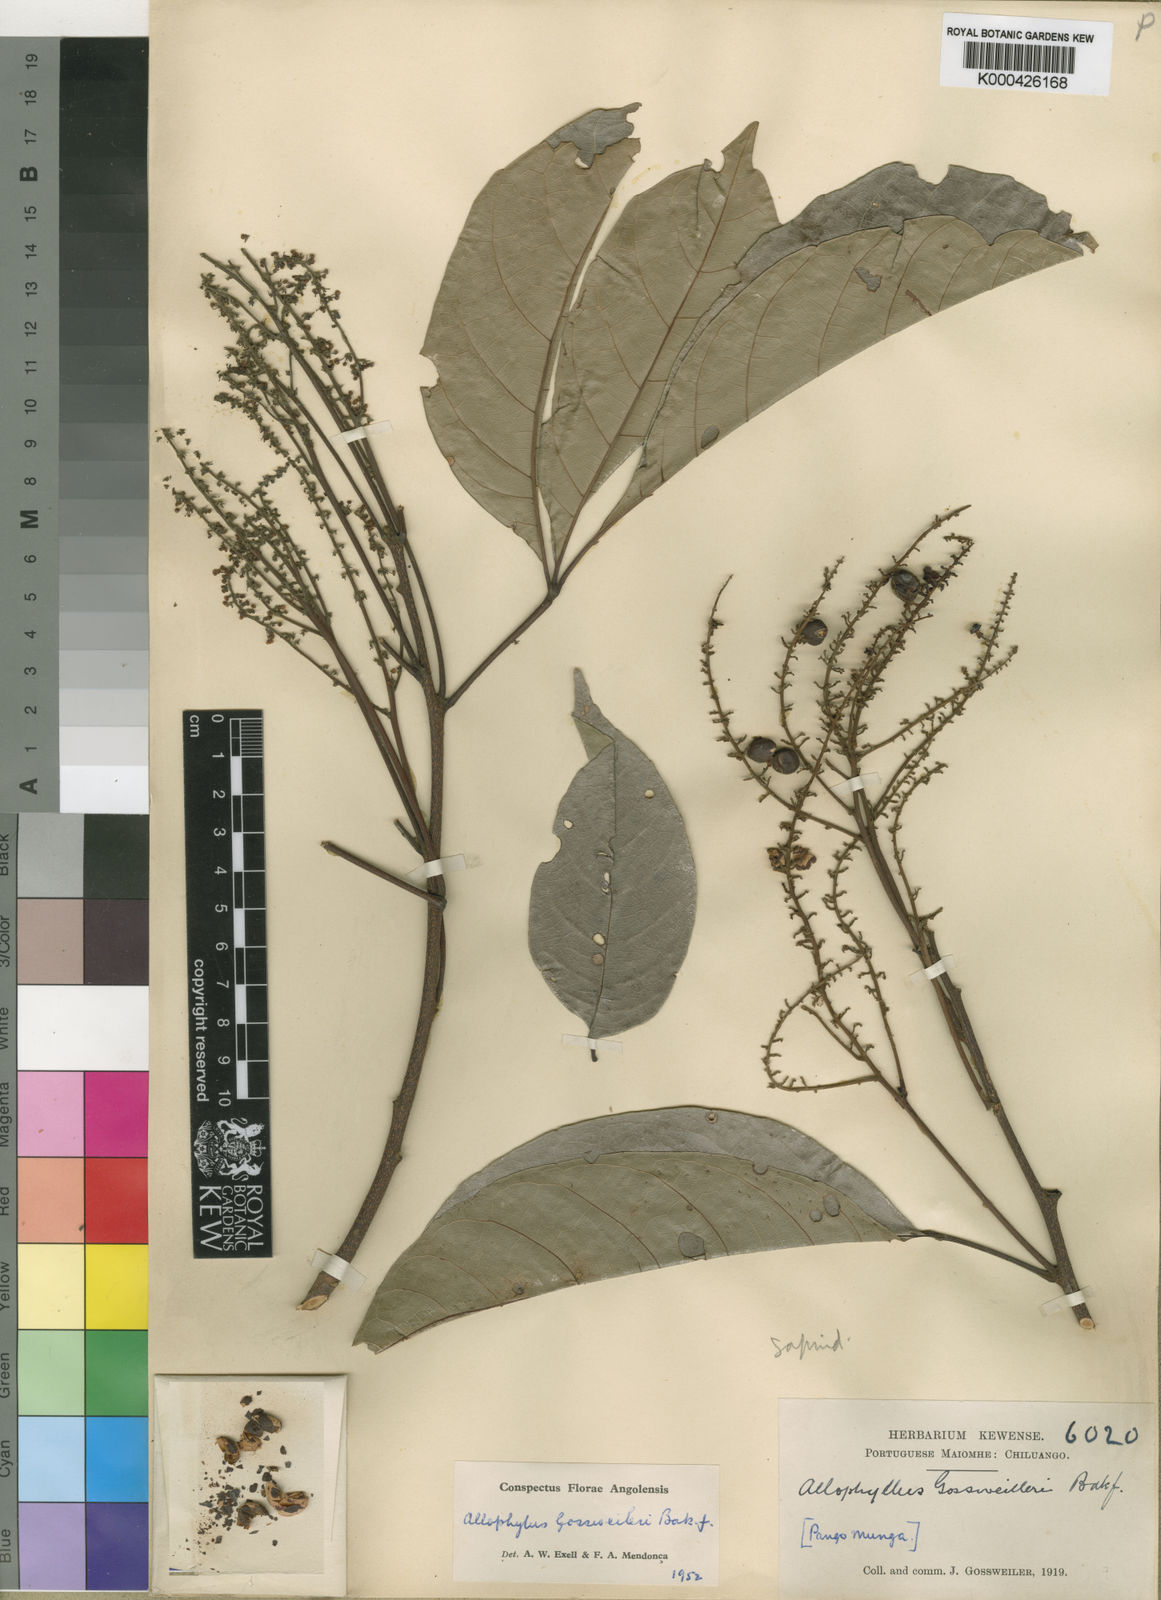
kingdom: Plantae
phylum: Tracheophyta
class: Magnoliopsida
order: Sapindales
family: Sapindaceae
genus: Allophylus
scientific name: Allophylus gossweileri
